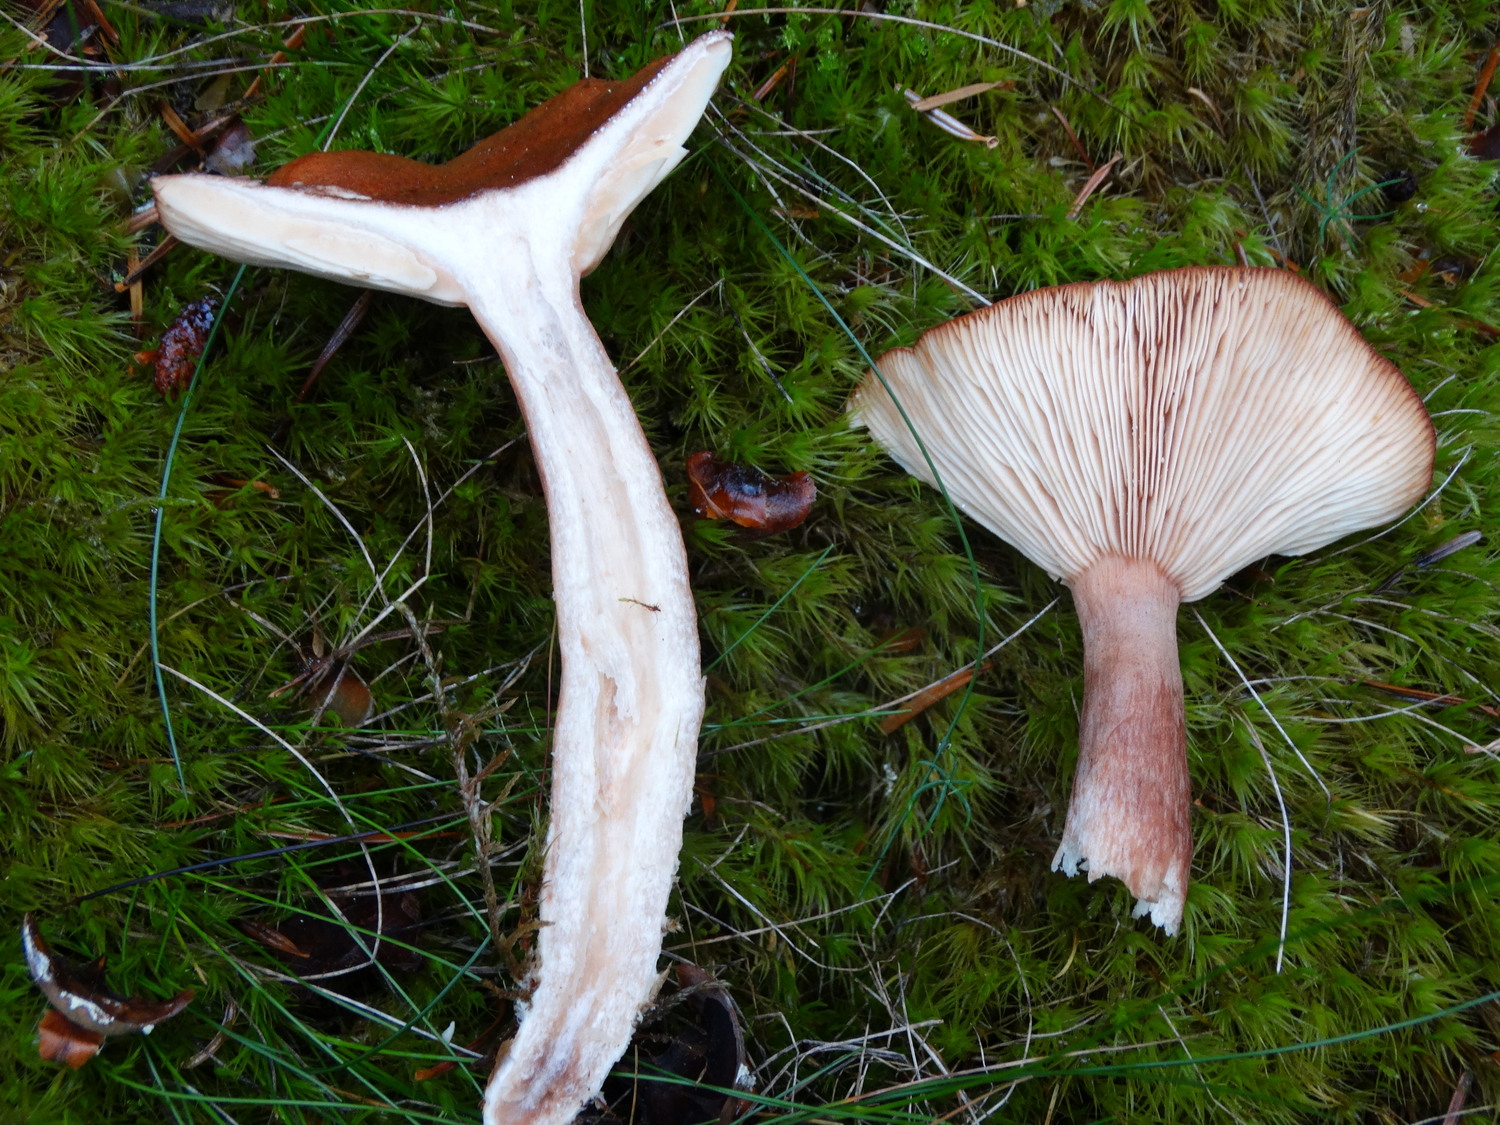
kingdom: Fungi
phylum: Basidiomycota
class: Agaricomycetes
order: Russulales
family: Russulaceae
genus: Lactarius
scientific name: Lactarius rufus
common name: rødbrun mælkehat
